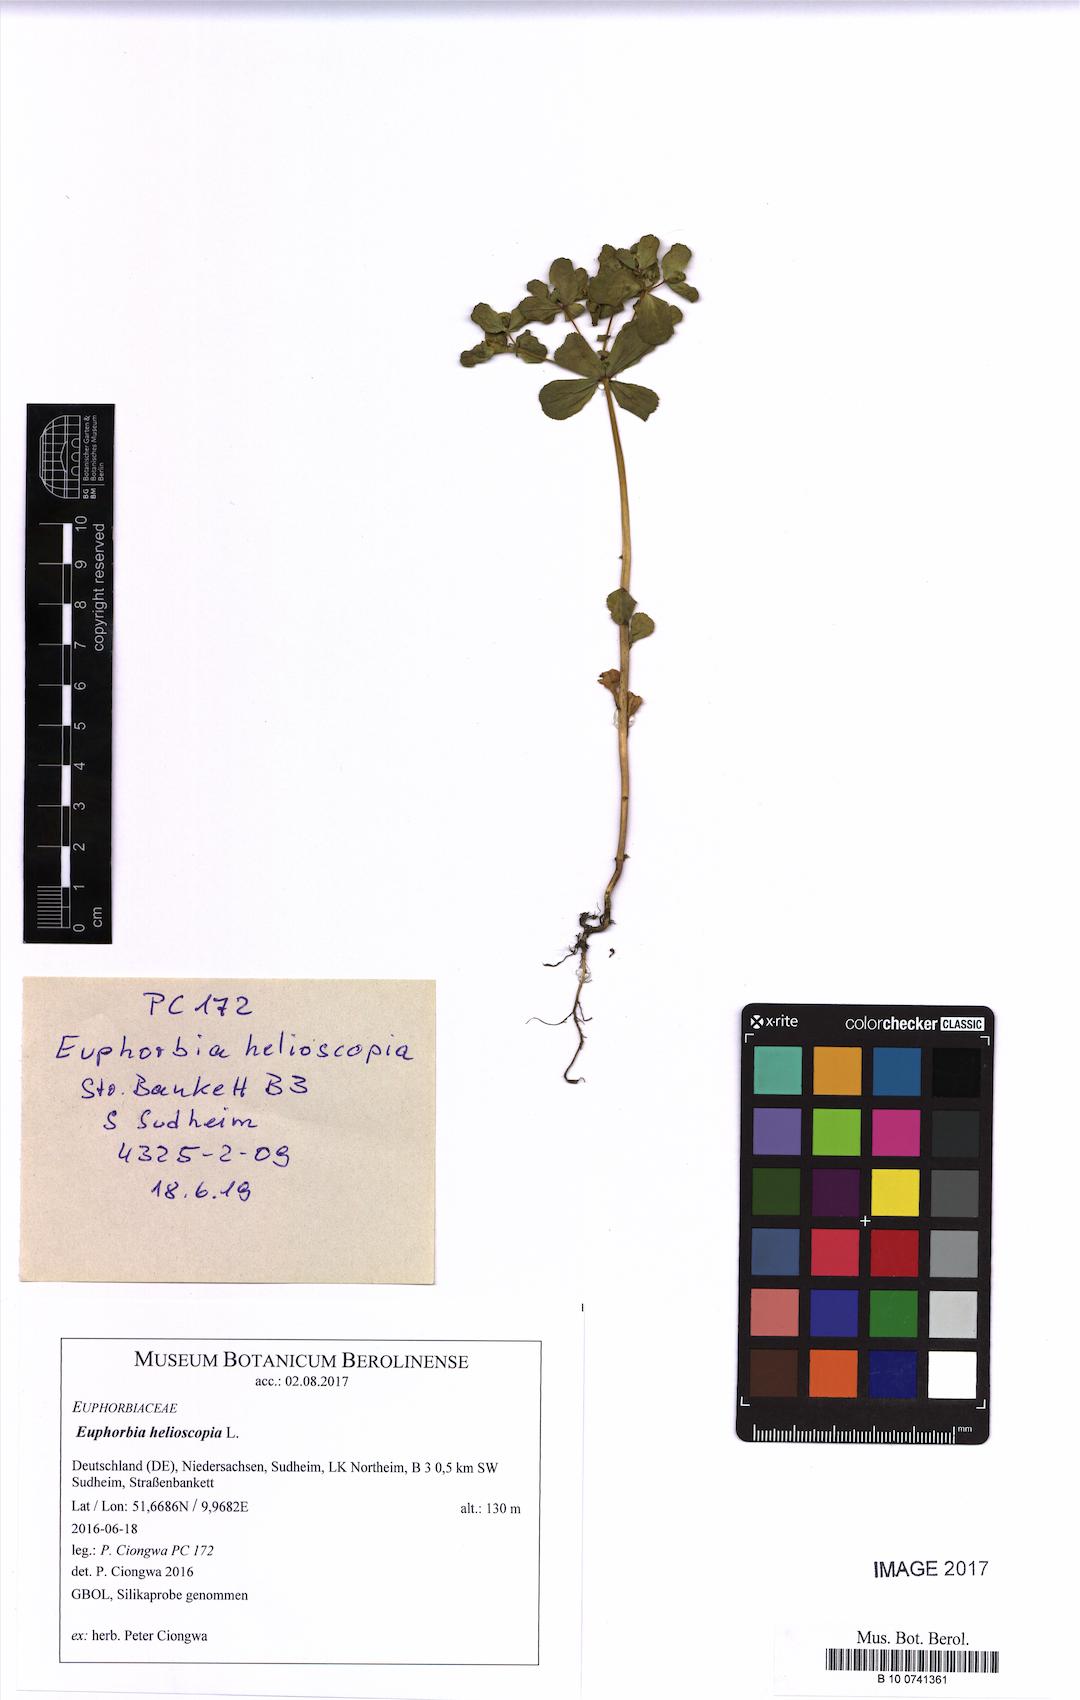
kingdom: Plantae
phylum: Tracheophyta
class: Magnoliopsida
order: Malpighiales
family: Euphorbiaceae
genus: Euphorbia
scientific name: Euphorbia helioscopia
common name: Sun spurge
